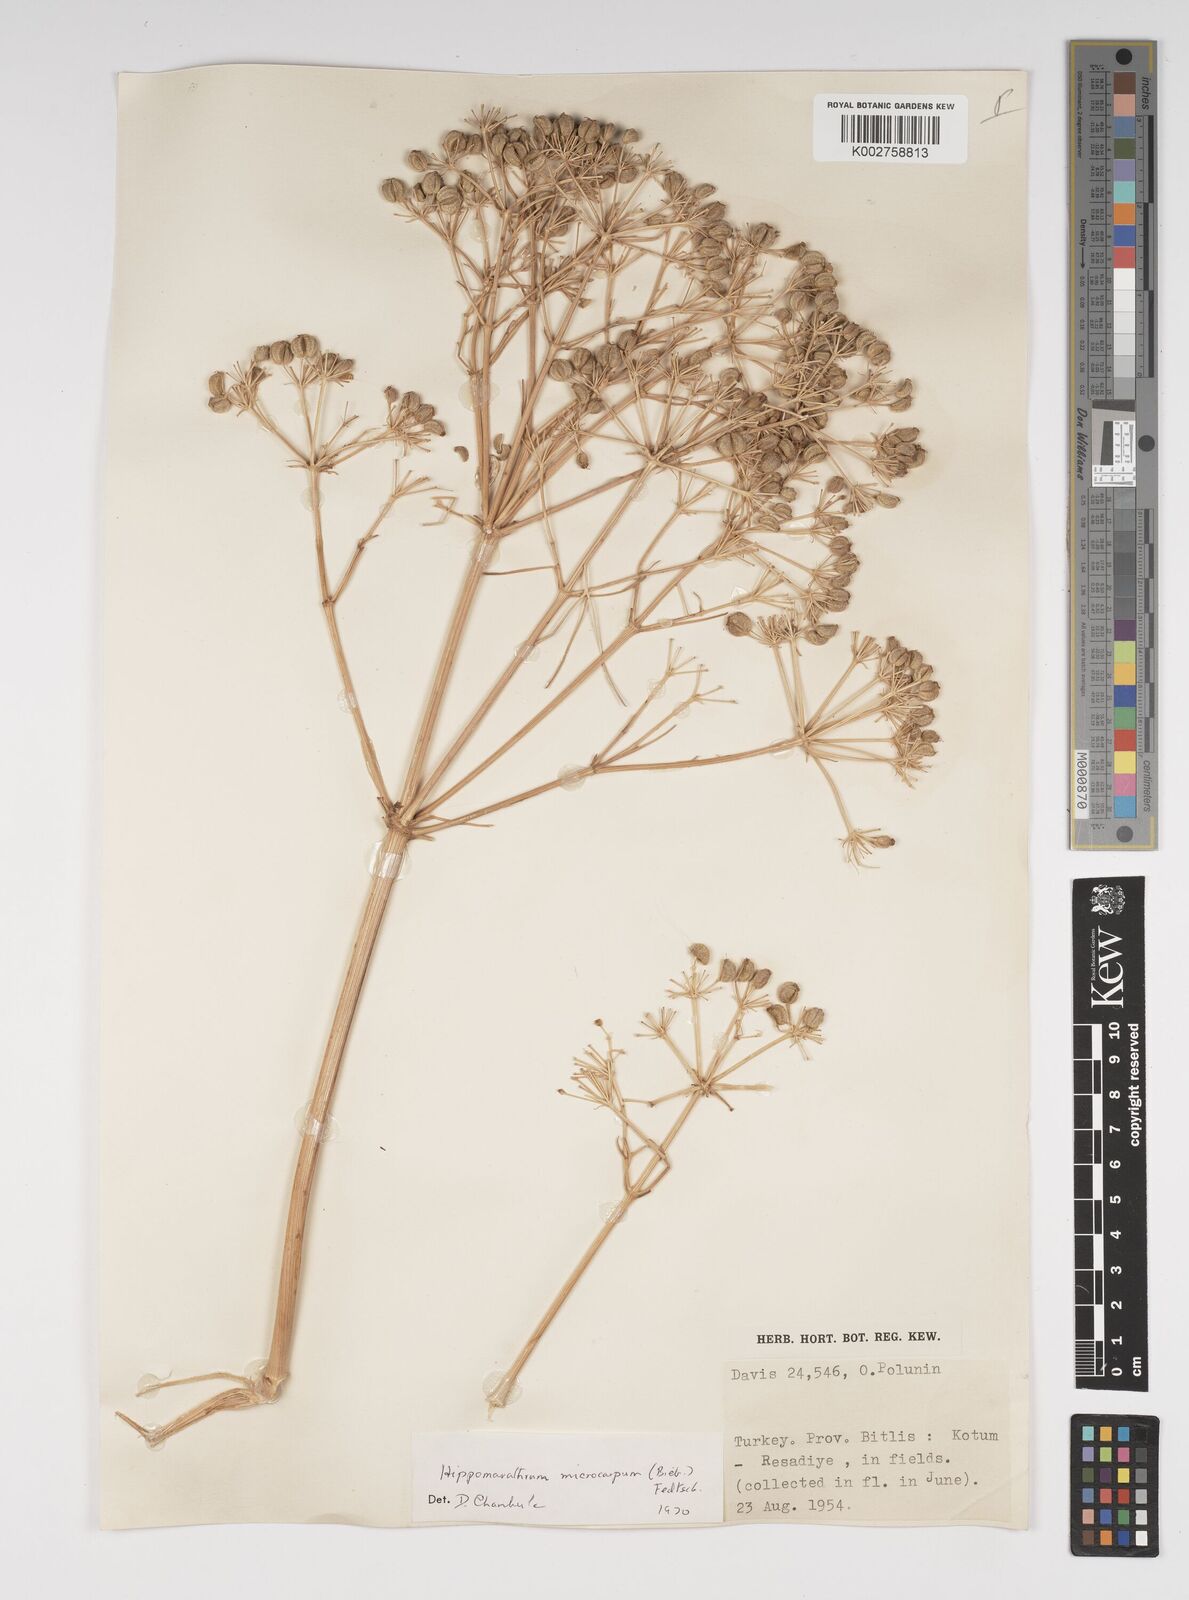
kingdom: Plantae
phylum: Tracheophyta
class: Magnoliopsida
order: Apiales
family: Apiaceae
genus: Bilacunaria
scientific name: Bilacunaria microcarpa
